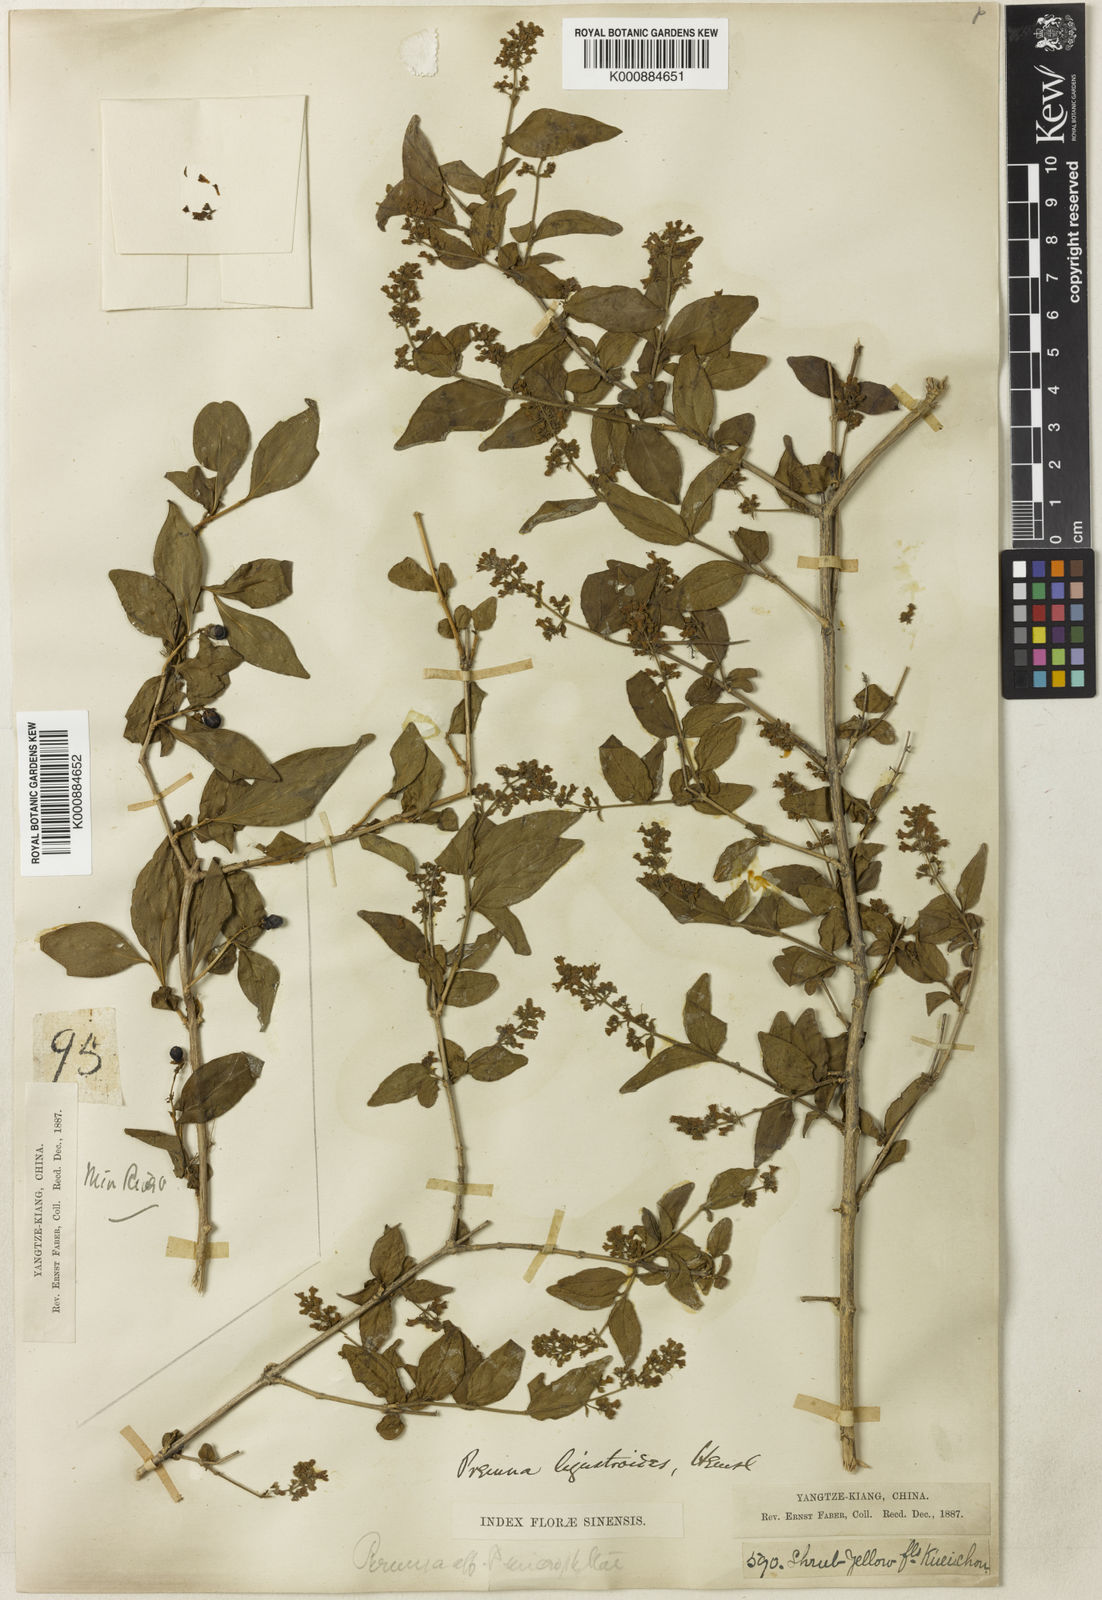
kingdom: Plantae
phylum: Tracheophyta
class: Magnoliopsida
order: Lamiales
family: Lamiaceae
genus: Premna
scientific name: Premna ligustroides
